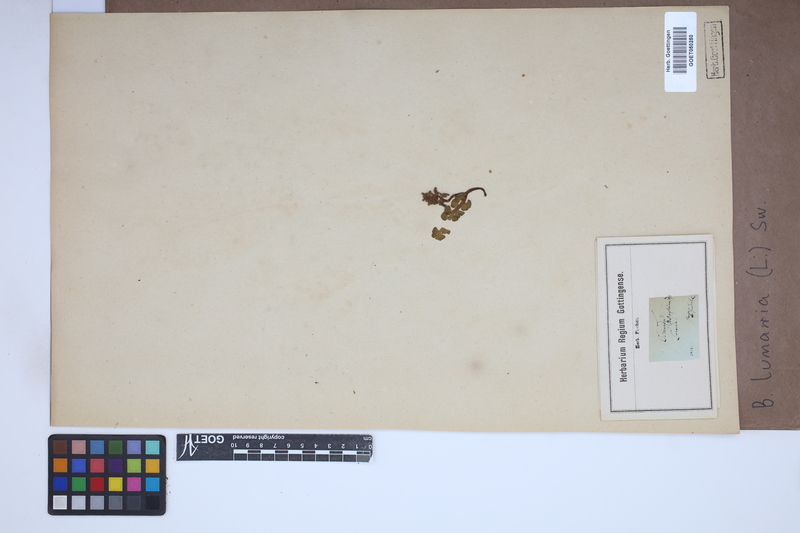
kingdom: Plantae
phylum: Tracheophyta
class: Polypodiopsida
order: Ophioglossales
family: Ophioglossaceae
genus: Botrychium
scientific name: Botrychium lunaria
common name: Moonwort
